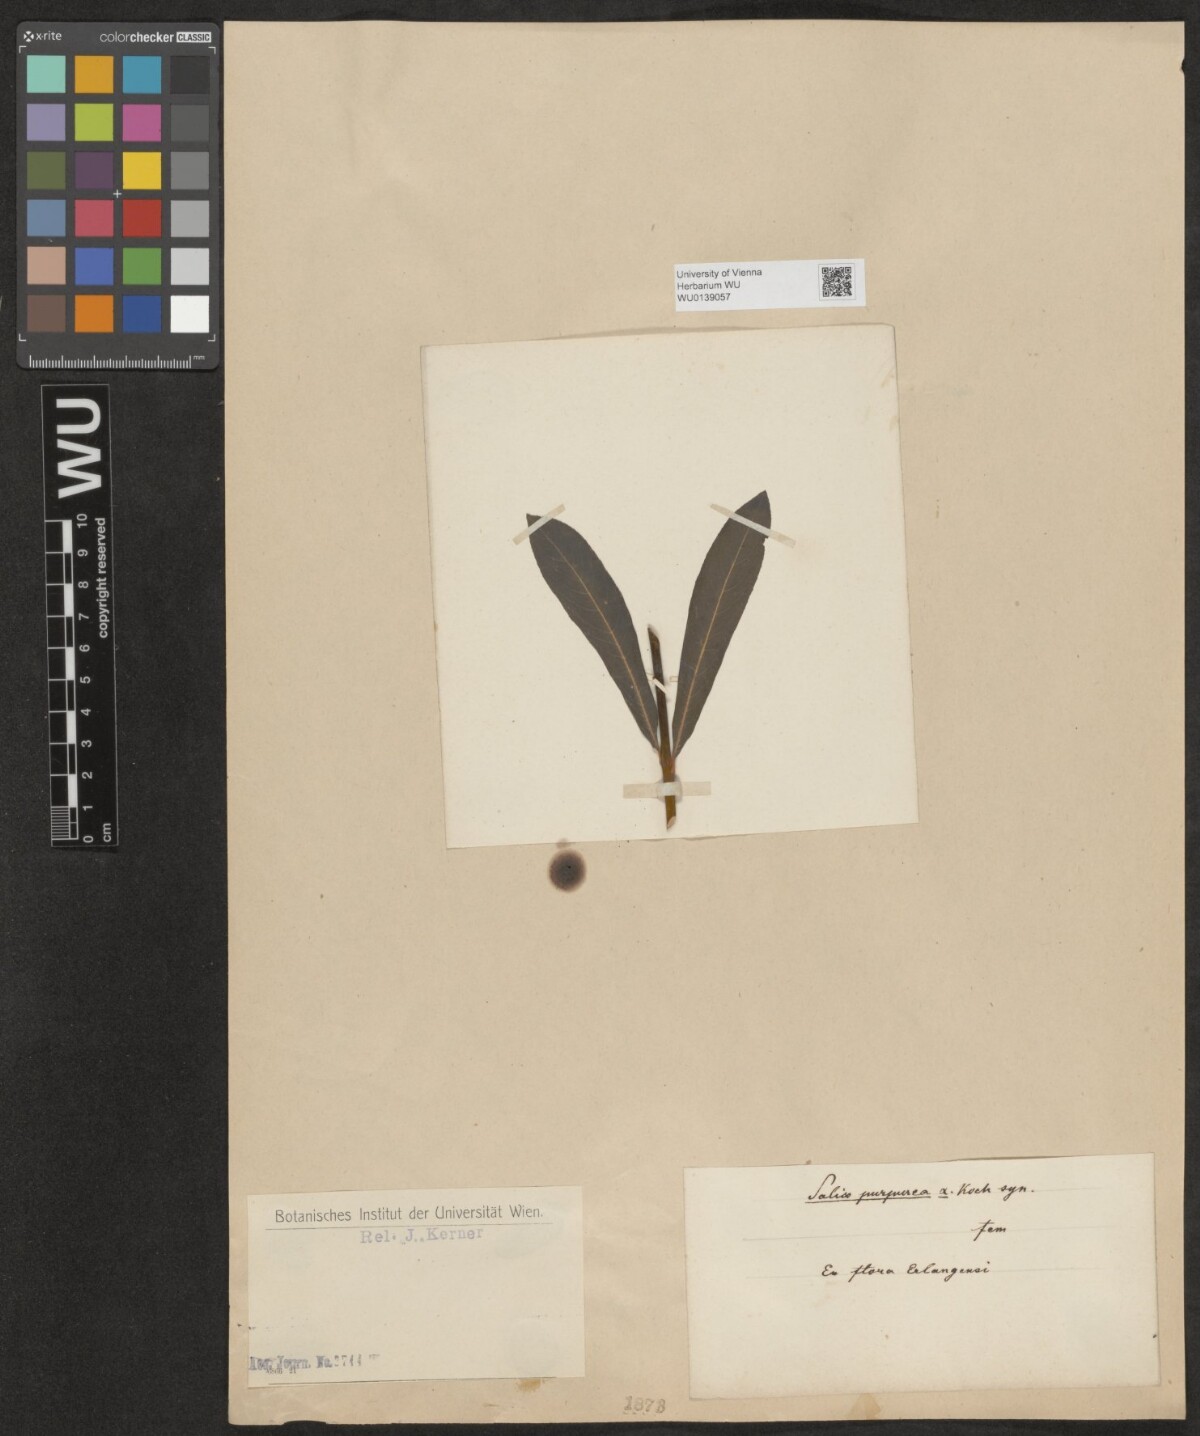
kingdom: Plantae
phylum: Tracheophyta
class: Magnoliopsida
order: Malpighiales
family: Salicaceae
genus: Salix
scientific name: Salix purpurea
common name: Purple willow
